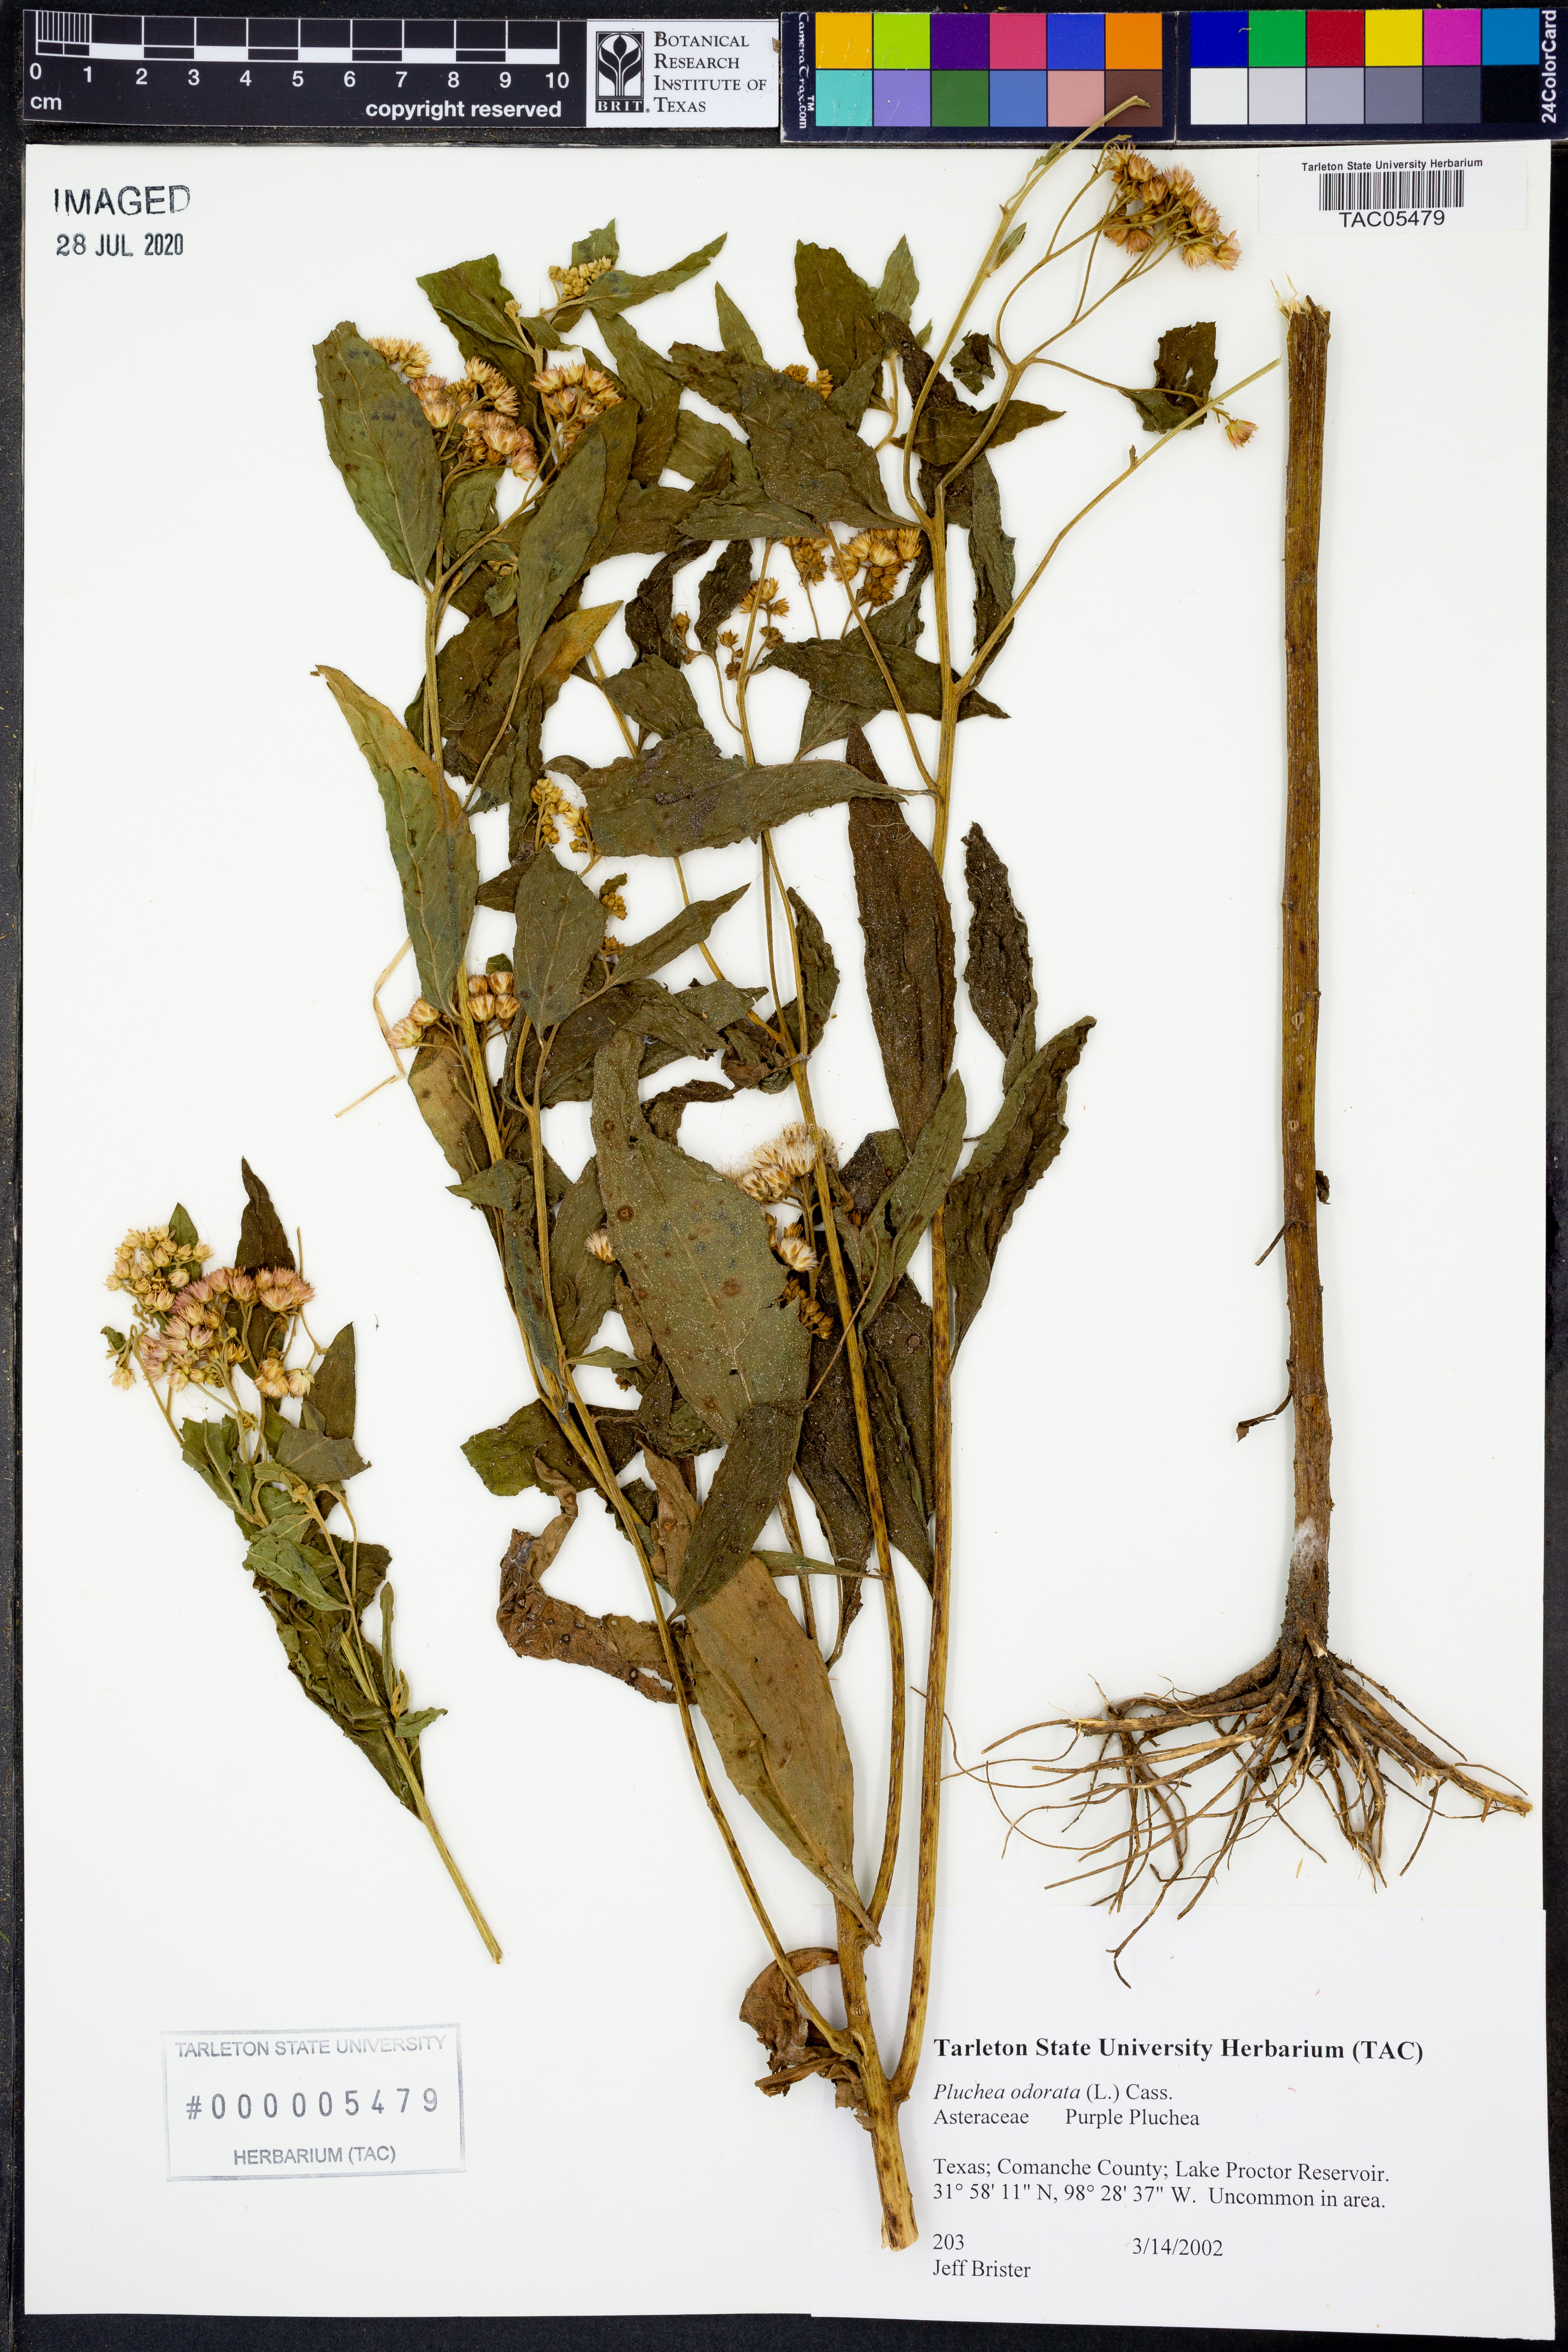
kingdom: Plantae
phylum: Tracheophyta
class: Magnoliopsida
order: Asterales
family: Asteraceae
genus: Pluchea
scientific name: Pluchea odorata
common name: Saltmarsh fleabane
